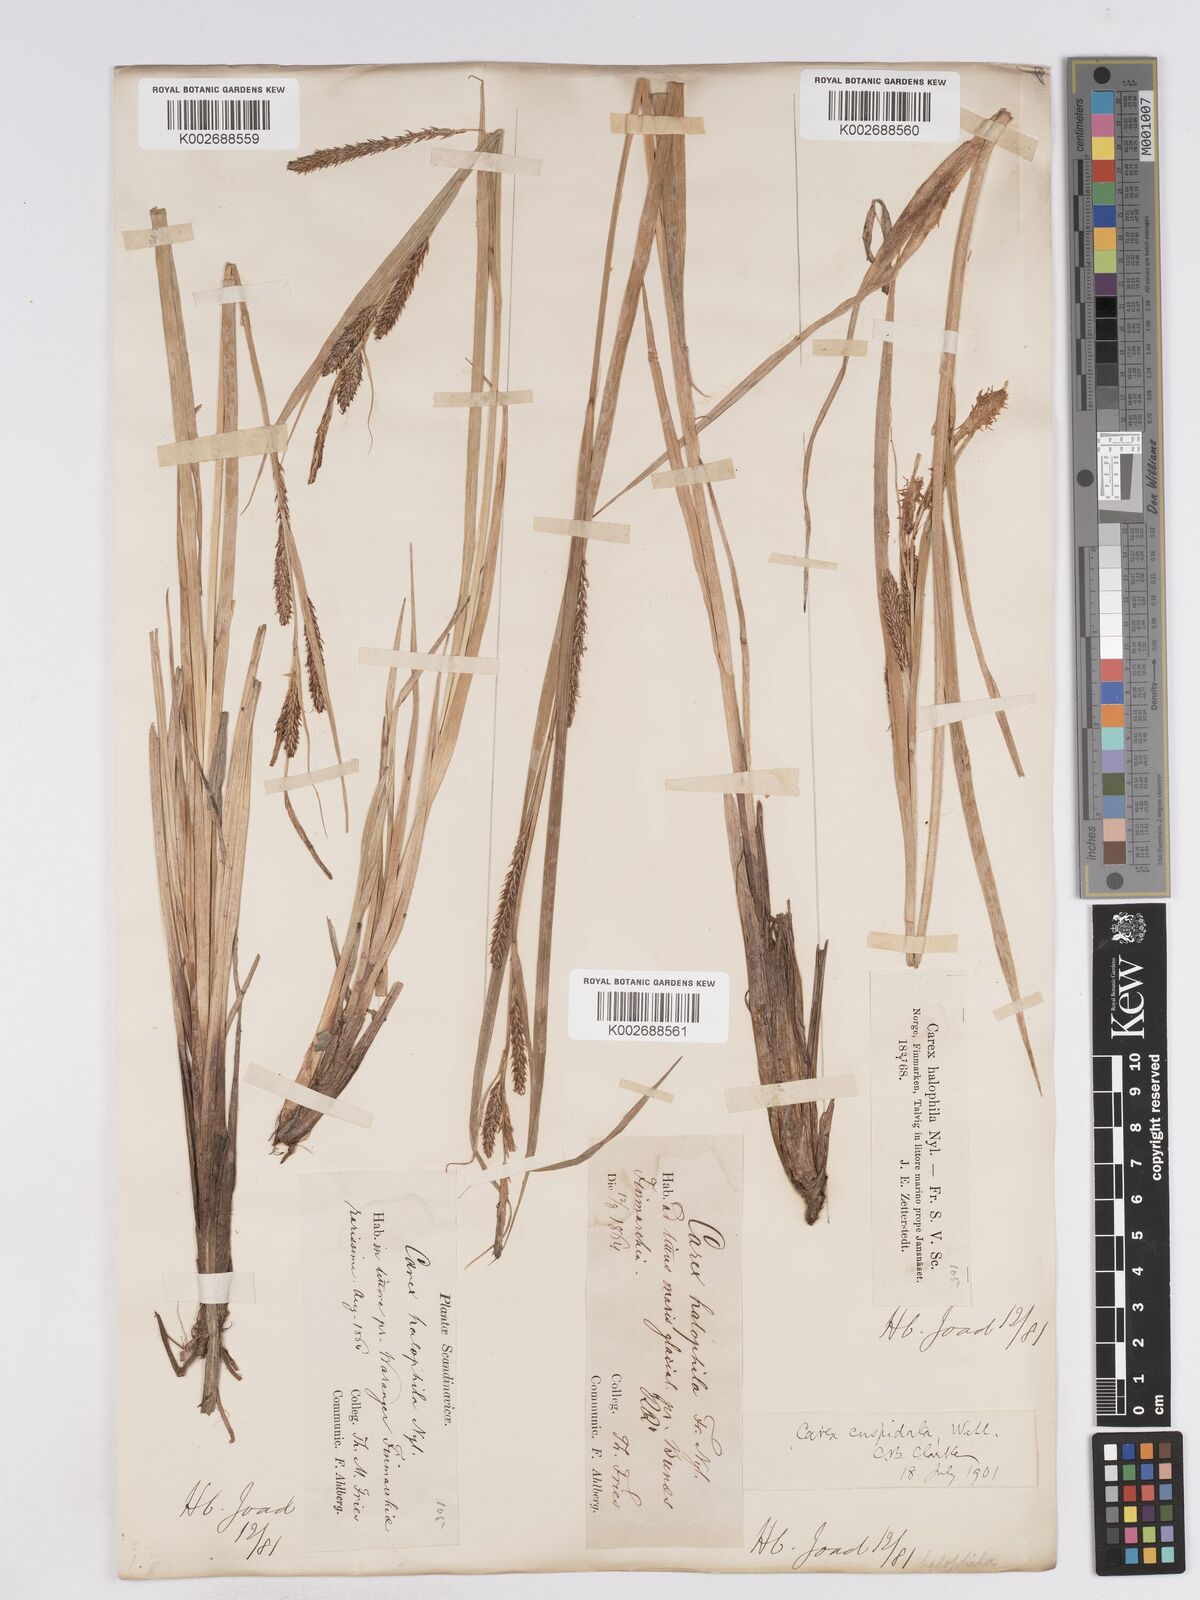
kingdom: Plantae
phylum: Tracheophyta
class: Liliopsida
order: Poales
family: Cyperaceae
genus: Carex
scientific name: Carex recta
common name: Estuarine sedge
